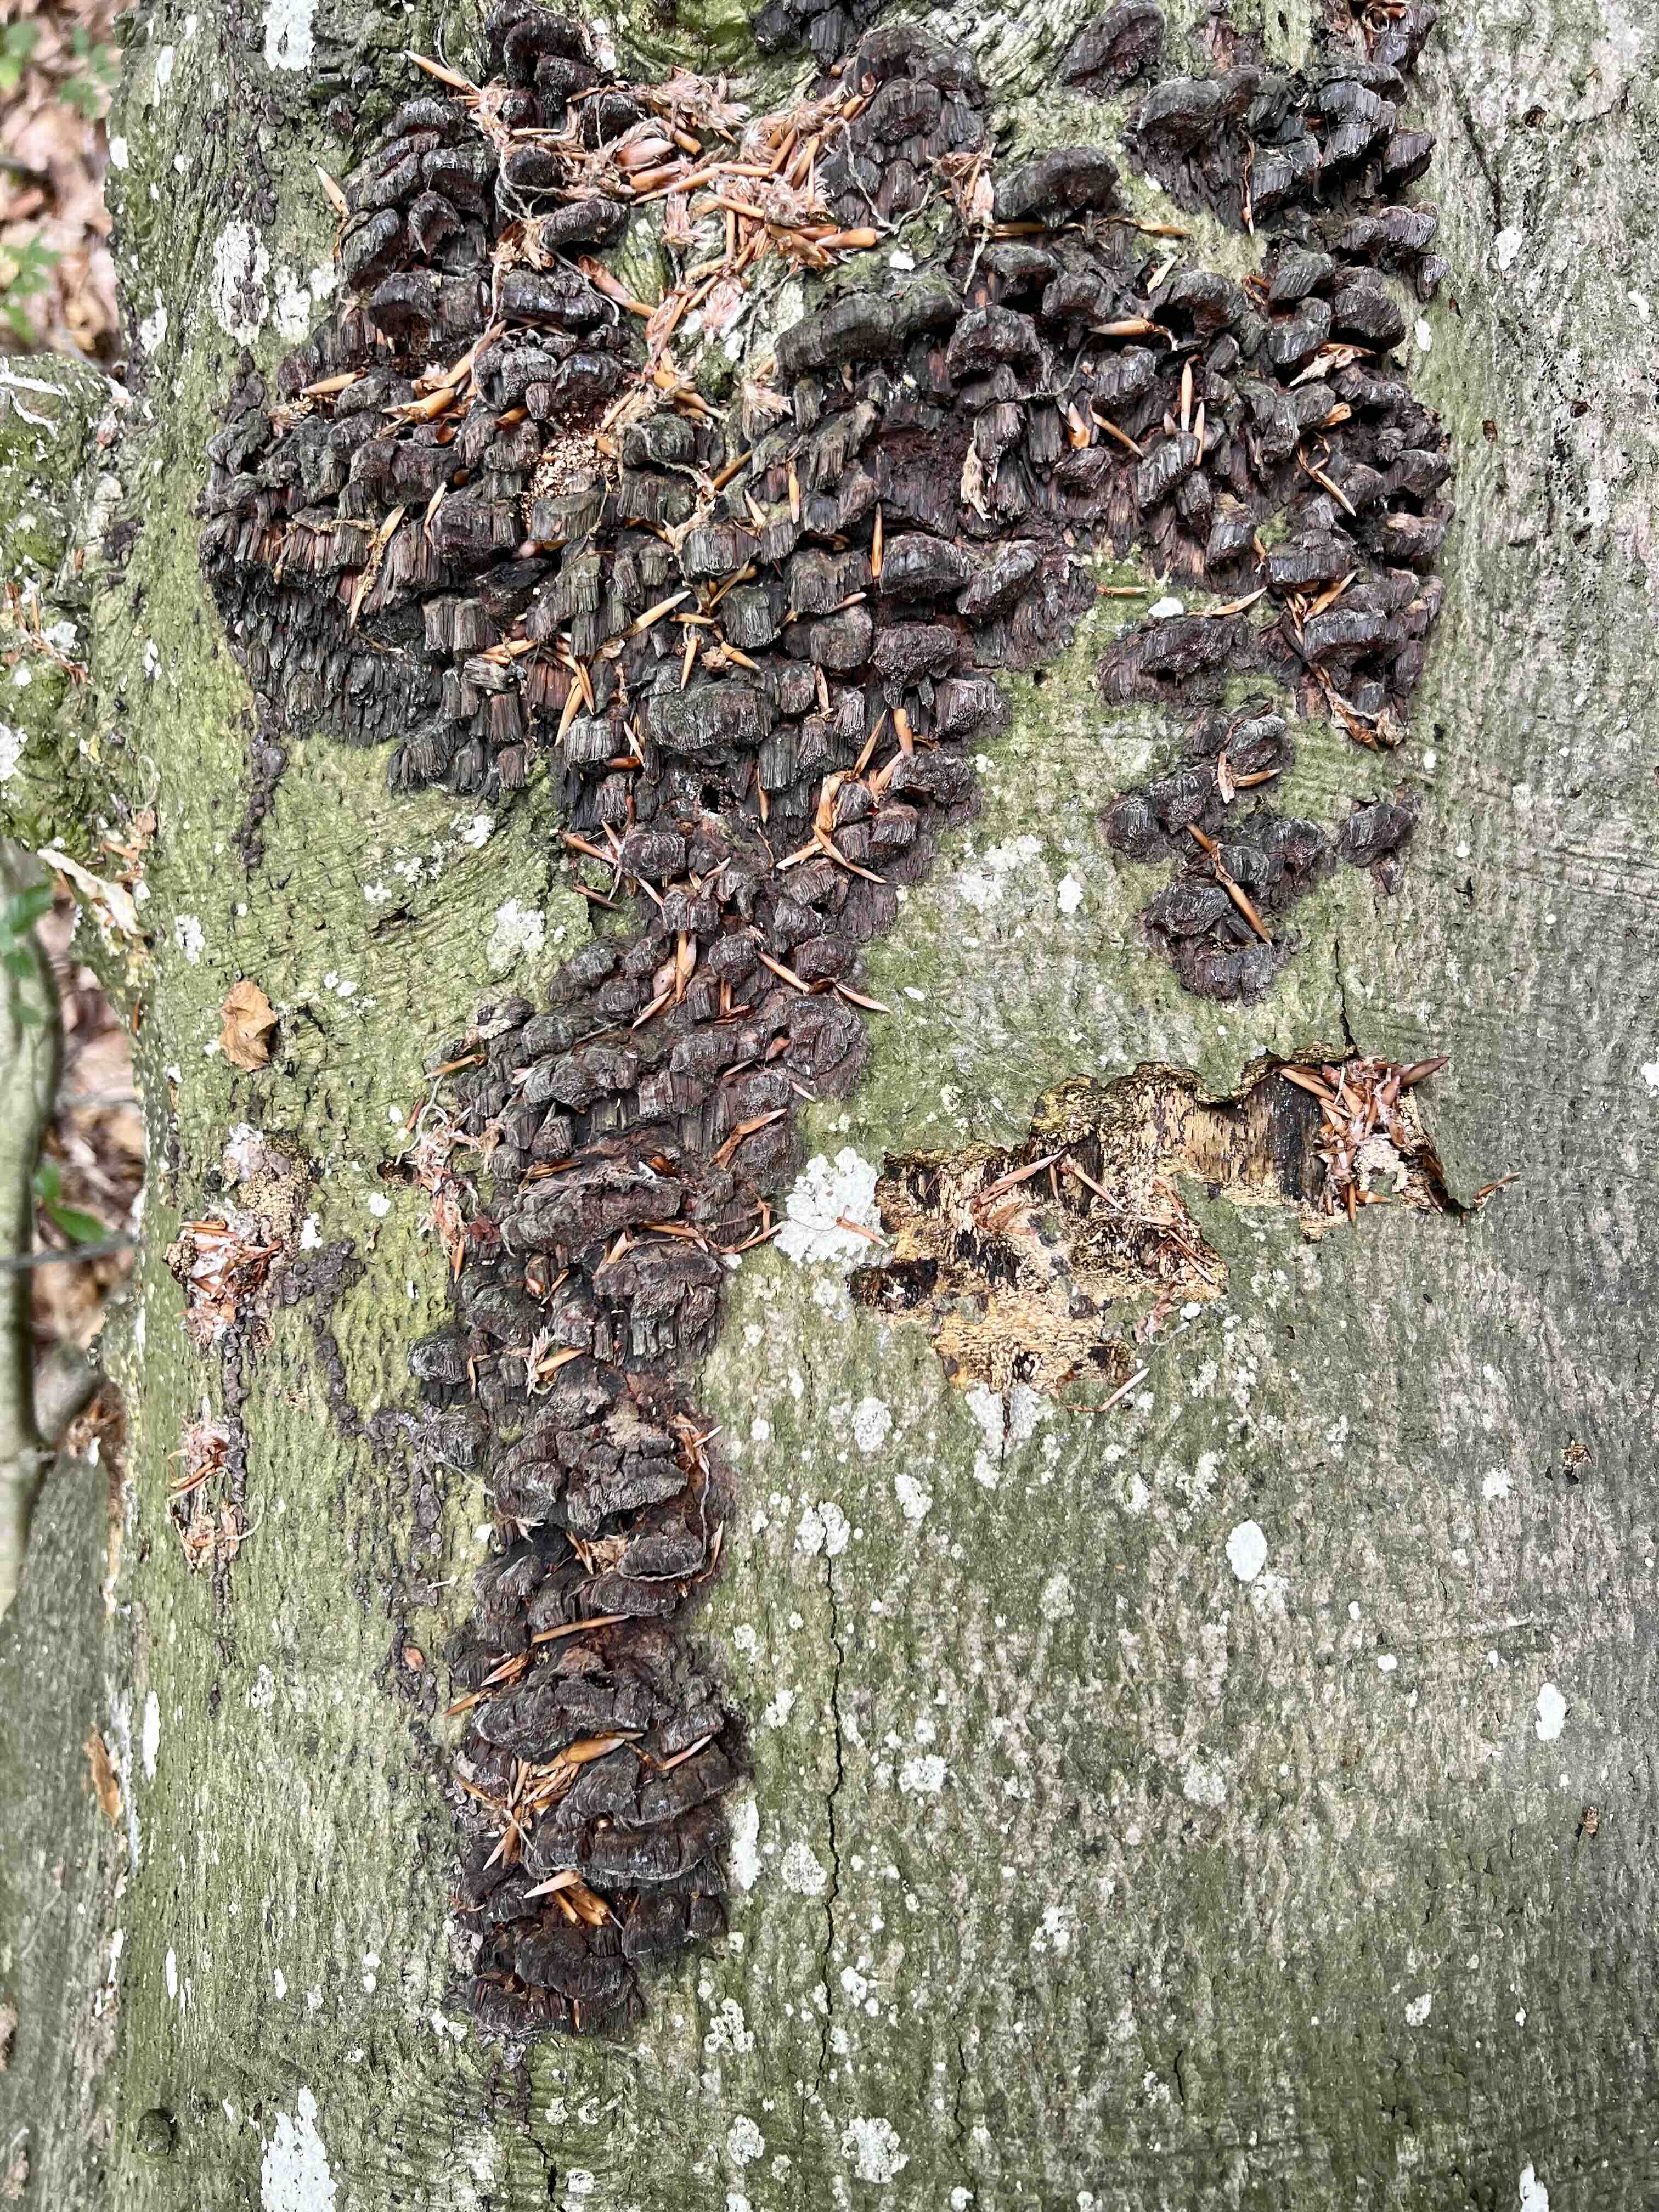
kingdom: Fungi
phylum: Basidiomycota
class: Agaricomycetes
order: Hymenochaetales
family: Hymenochaetaceae
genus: Mensularia
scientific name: Mensularia nodulosa
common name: bøge-spejlporesvamp
